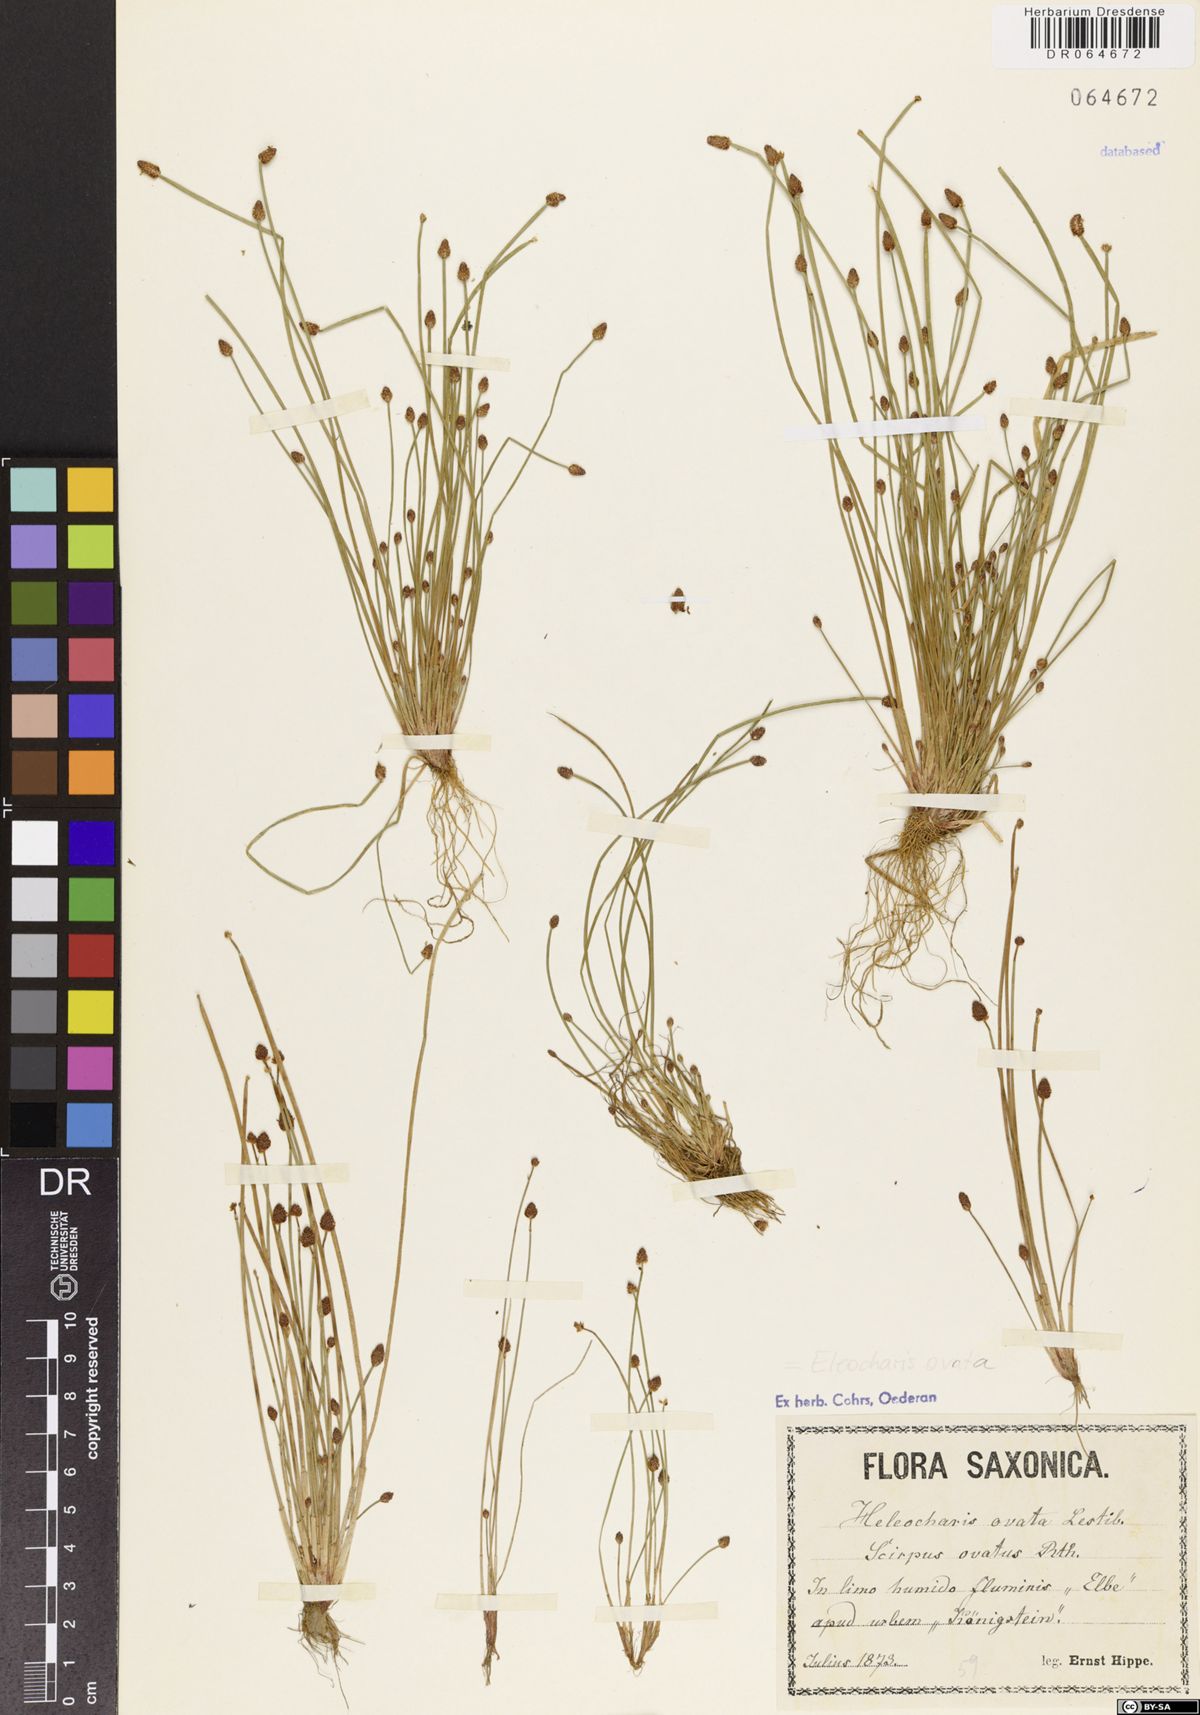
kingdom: Plantae
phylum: Tracheophyta
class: Liliopsida
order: Poales
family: Cyperaceae
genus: Eleocharis
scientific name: Eleocharis ovata
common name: Oval spike-rush
